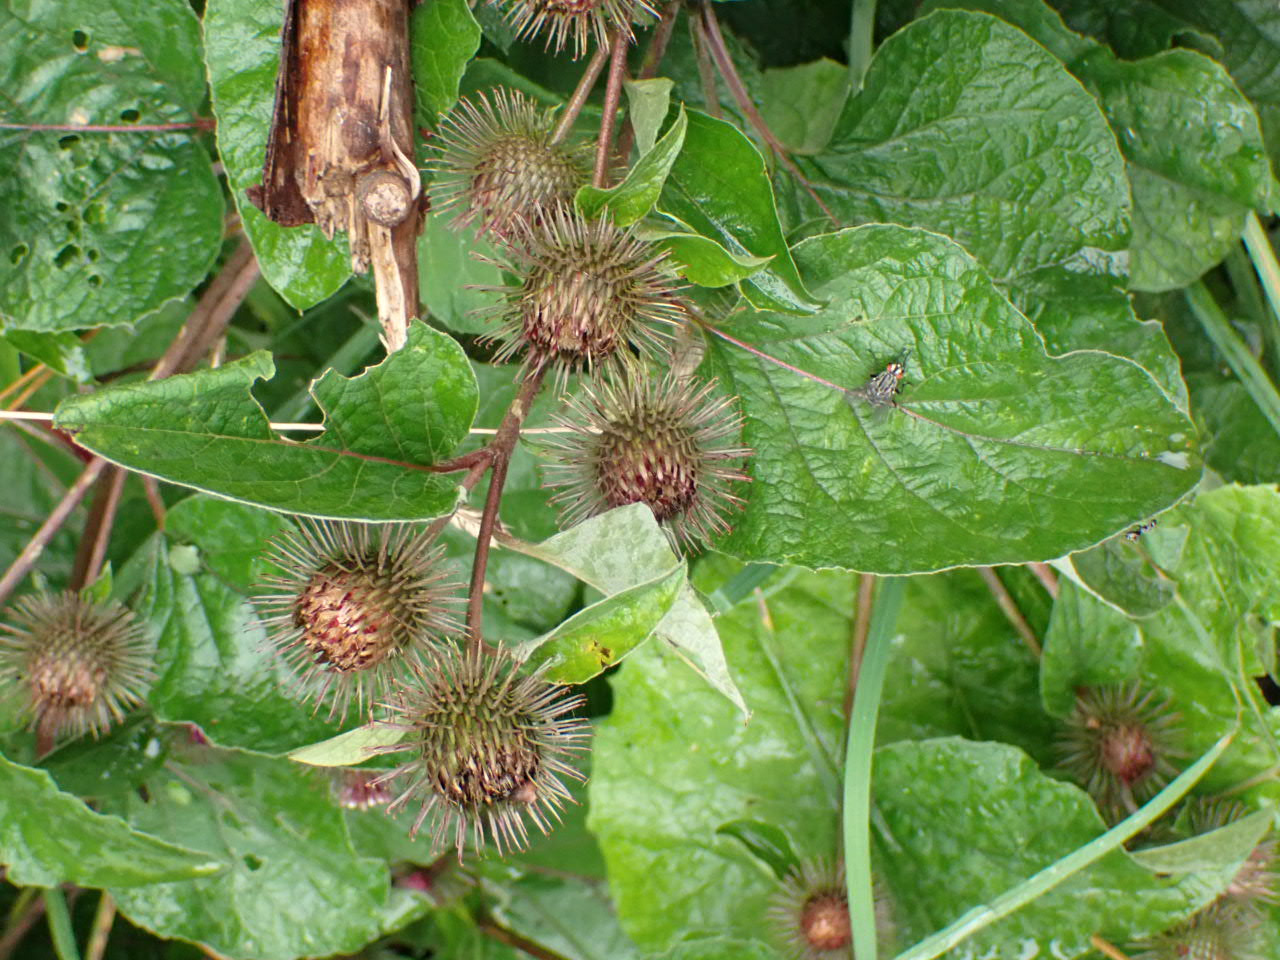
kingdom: Plantae
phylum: Tracheophyta
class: Magnoliopsida
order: Asterales
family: Asteraceae
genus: Arctium
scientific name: Arctium nemorosum
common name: Skov-burre
